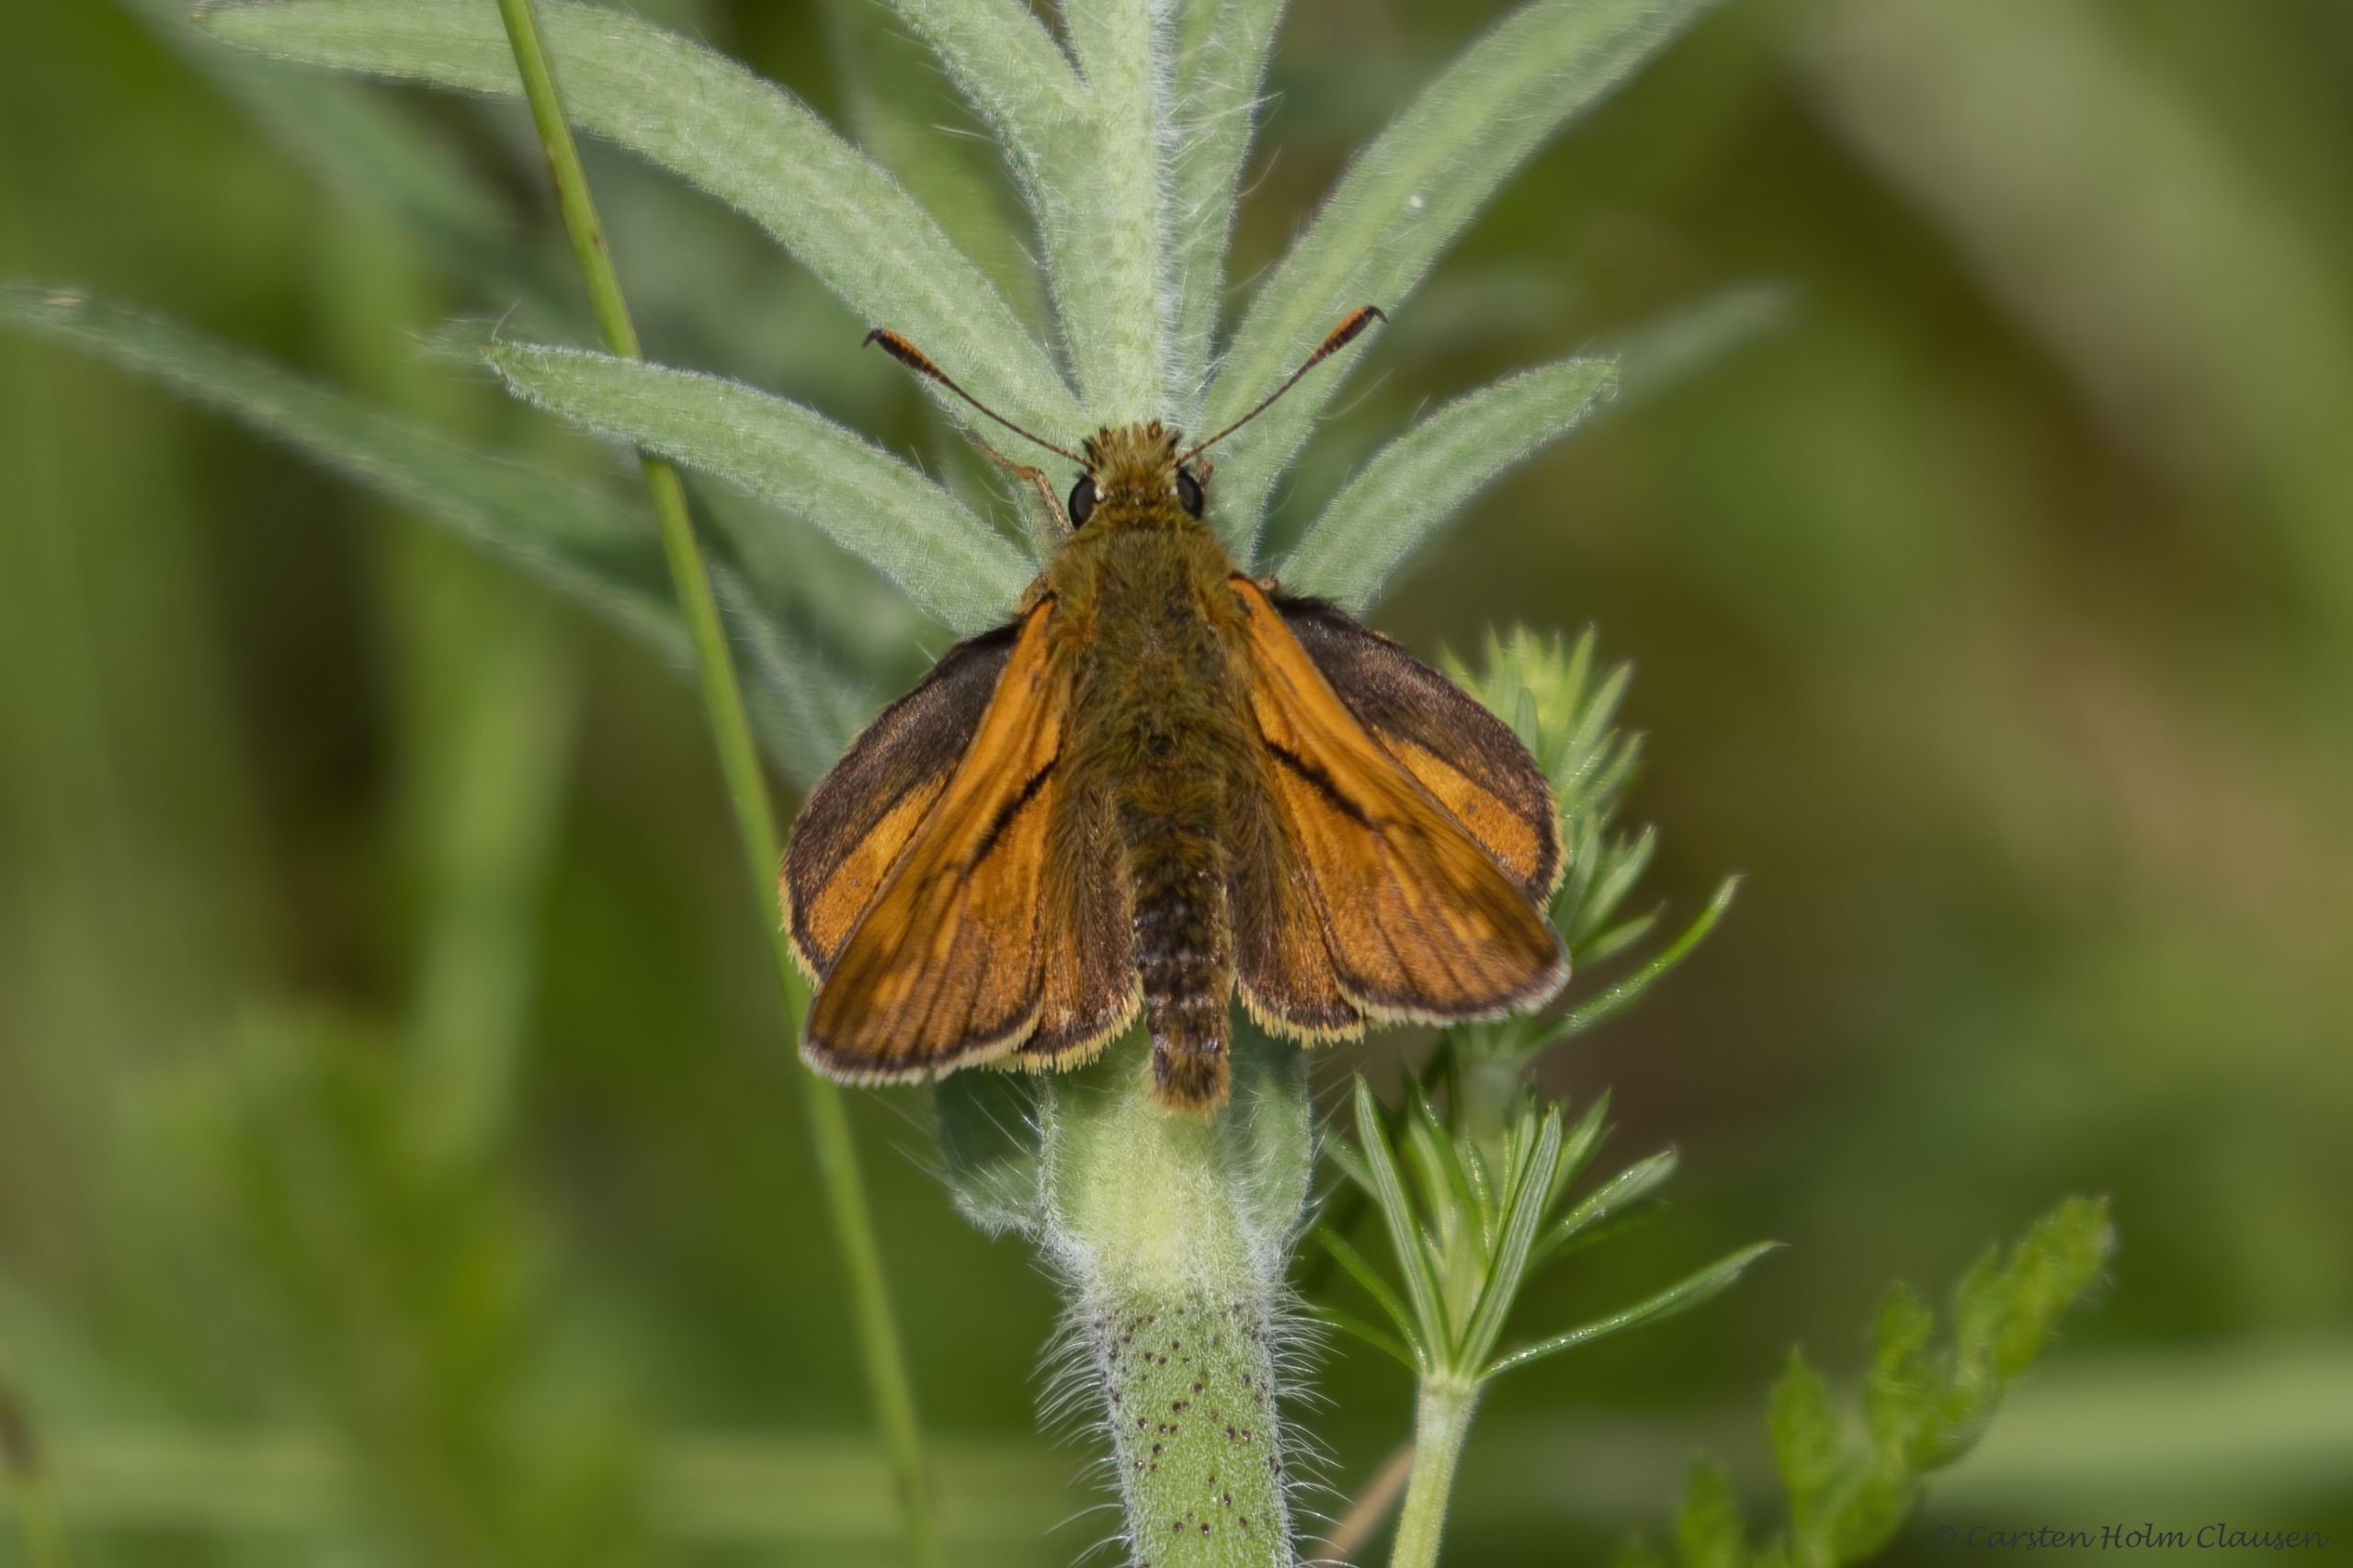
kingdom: Animalia
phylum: Arthropoda
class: Insecta
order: Lepidoptera
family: Hesperiidae
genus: Ochlodes
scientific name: Ochlodes venata
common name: Stor bredpande
